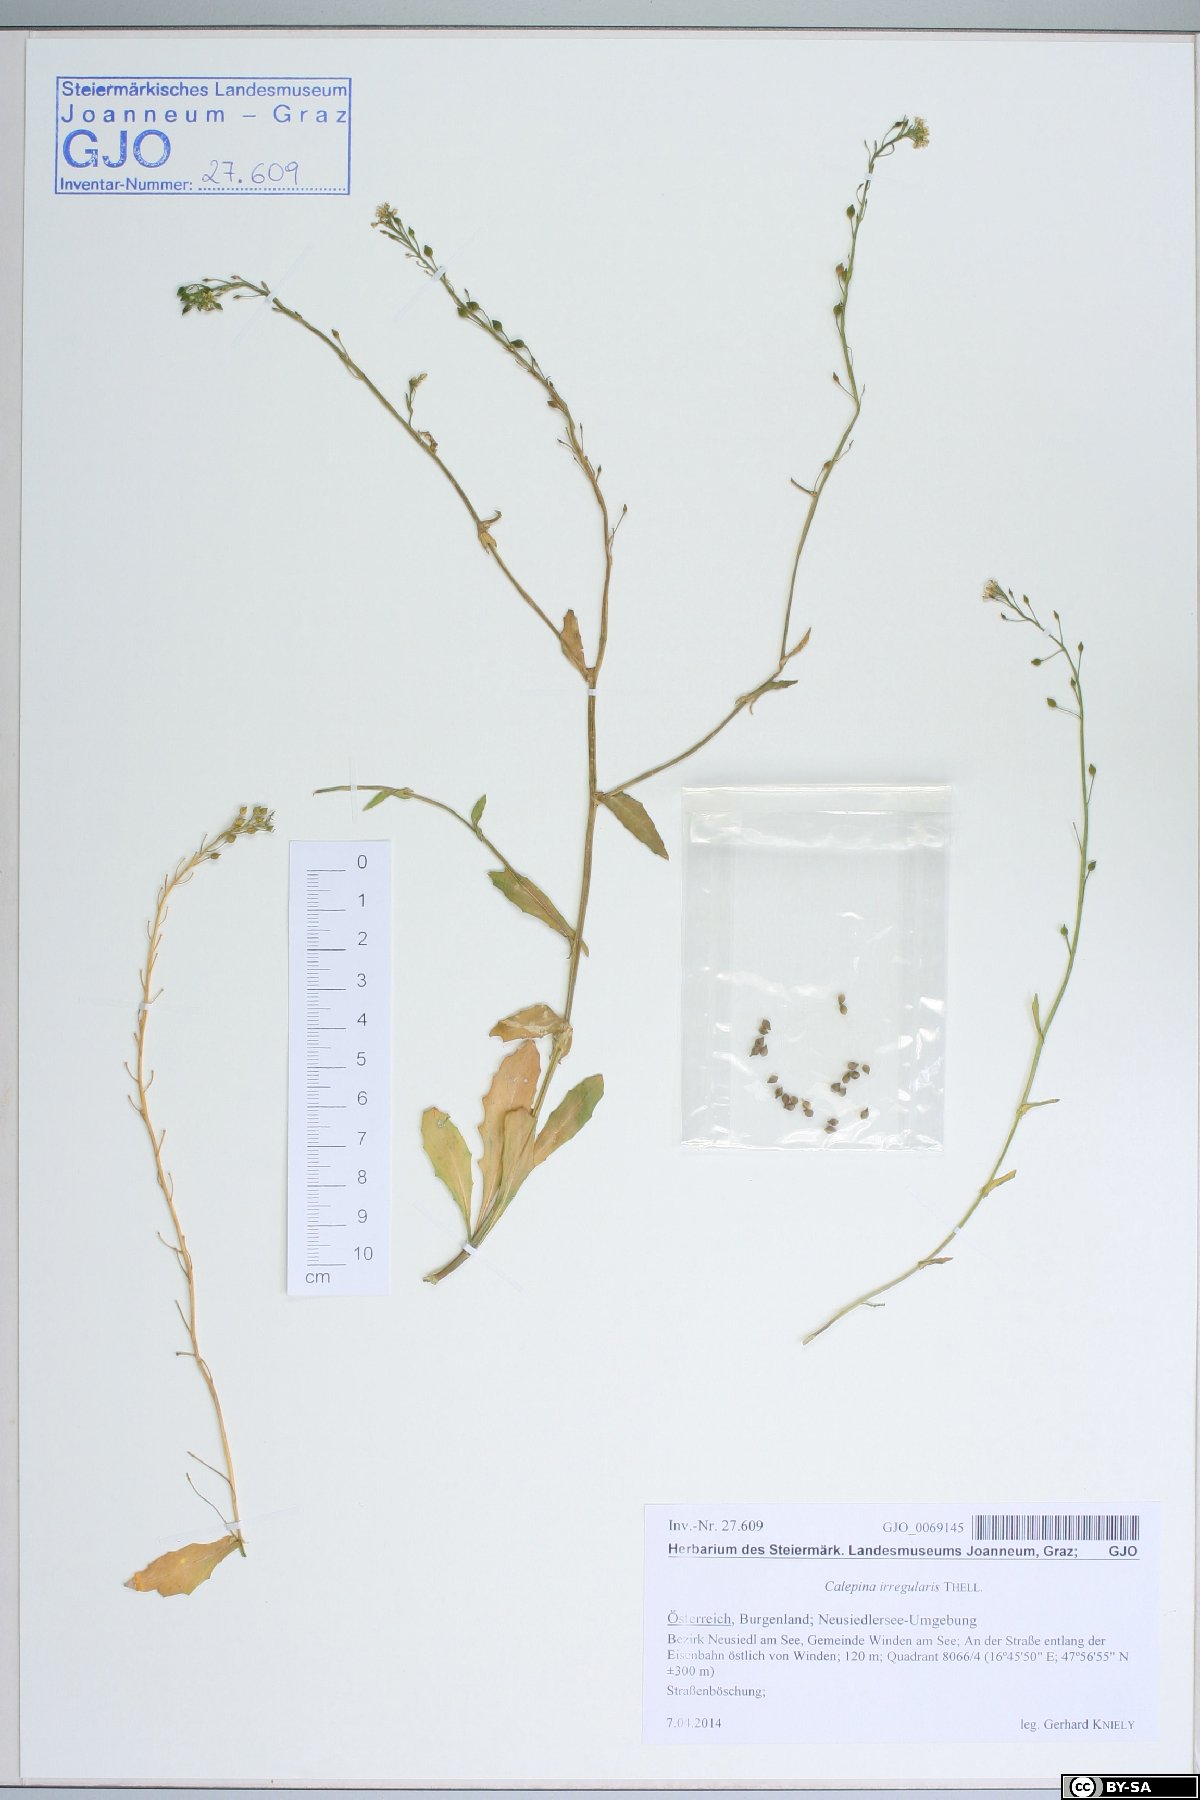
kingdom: Plantae
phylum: Tracheophyta
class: Magnoliopsida
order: Brassicales
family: Brassicaceae
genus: Calepina
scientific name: Calepina irregularis
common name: White ballmustard
